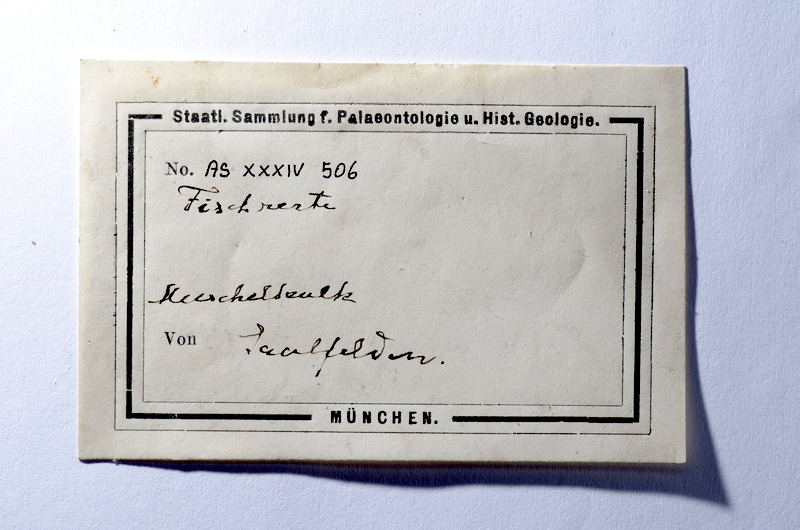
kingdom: Animalia
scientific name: Animalia
